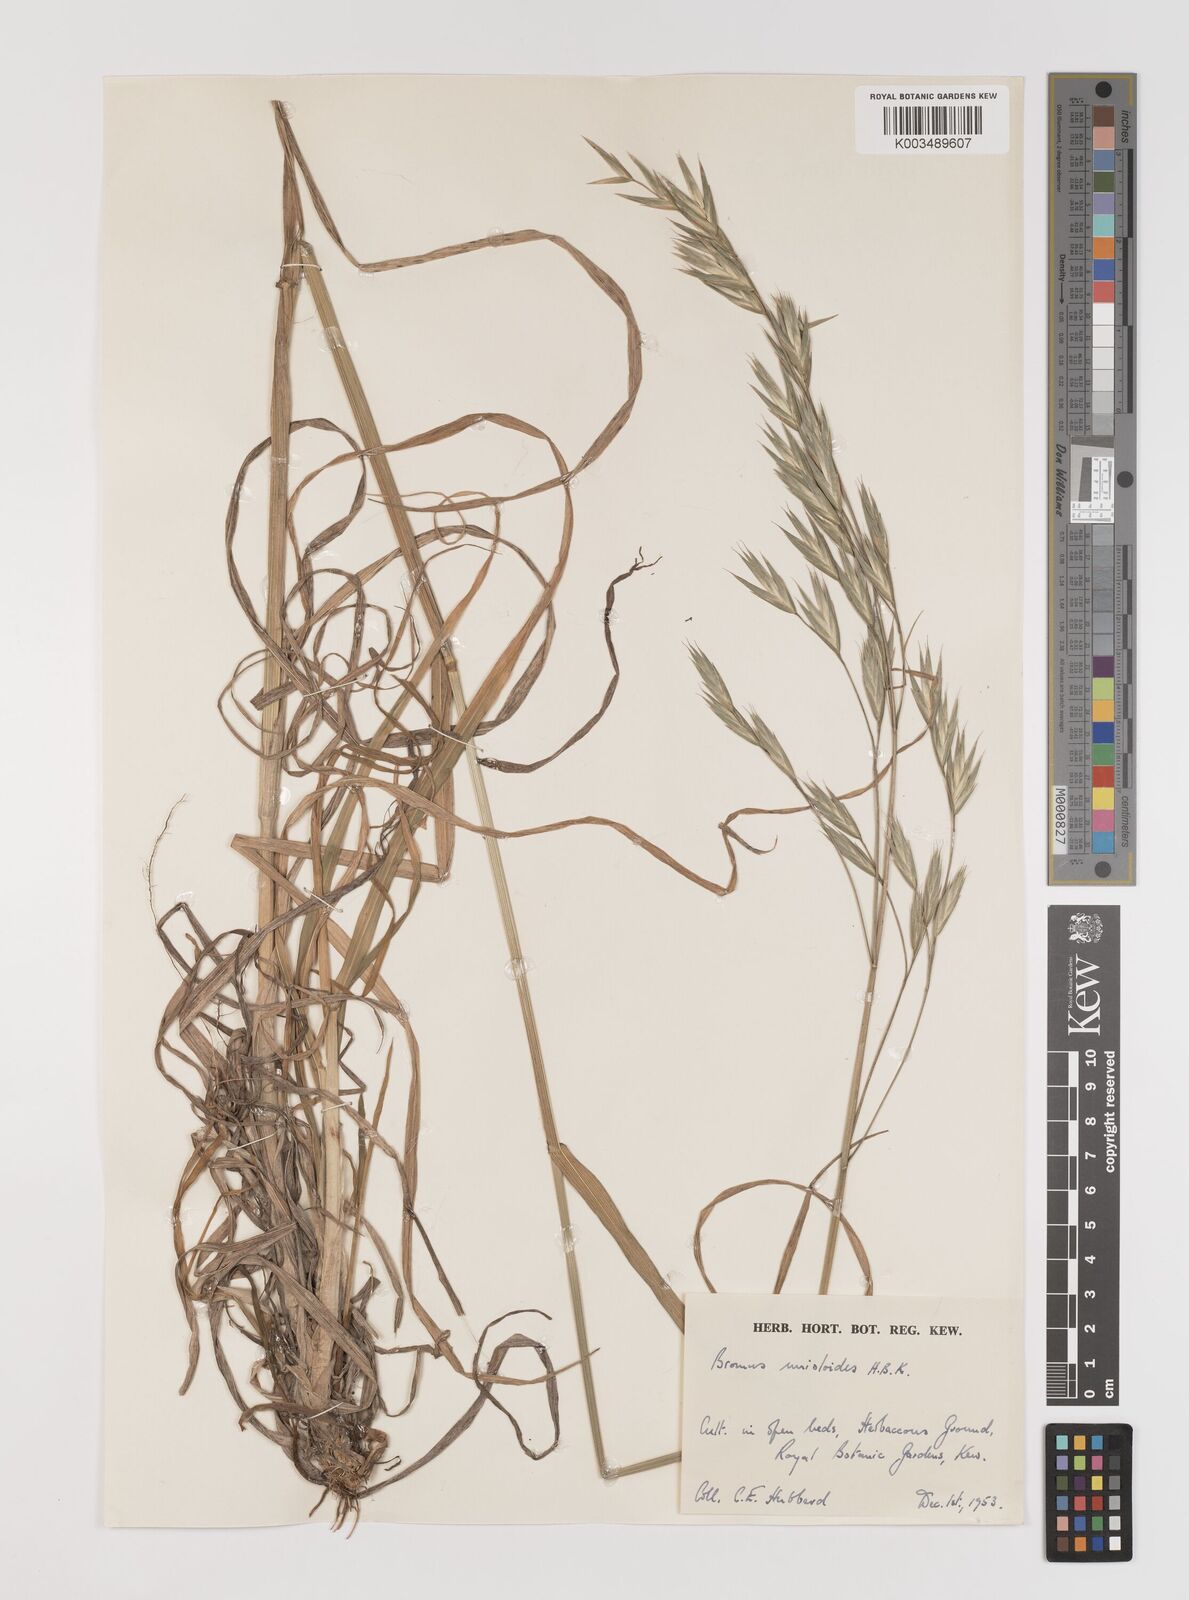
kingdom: Plantae
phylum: Tracheophyta
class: Liliopsida
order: Poales
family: Poaceae
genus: Bromus
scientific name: Bromus catharticus
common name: Rescuegrass
